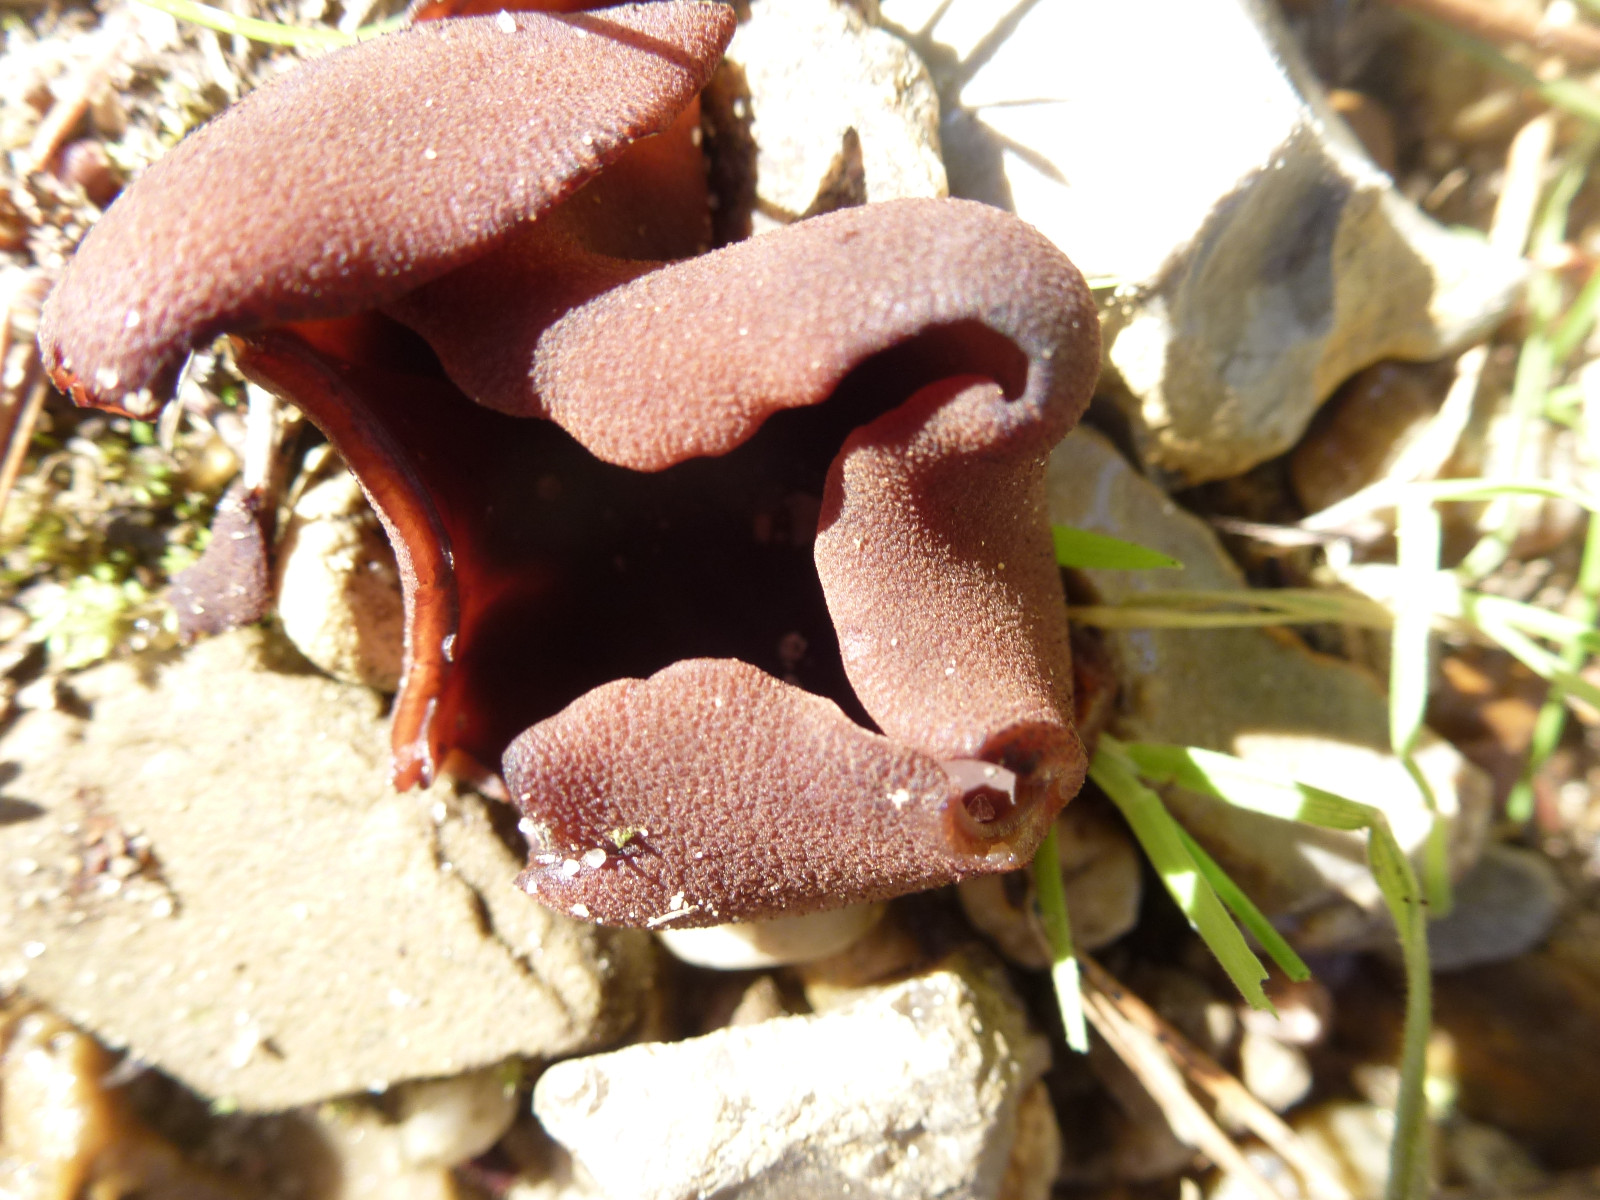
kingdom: Fungi
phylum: Ascomycota
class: Pezizomycetes
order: Pezizales
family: Pezizaceae
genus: Legaliana
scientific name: Legaliana badia
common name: leverbrun bægersvamp
